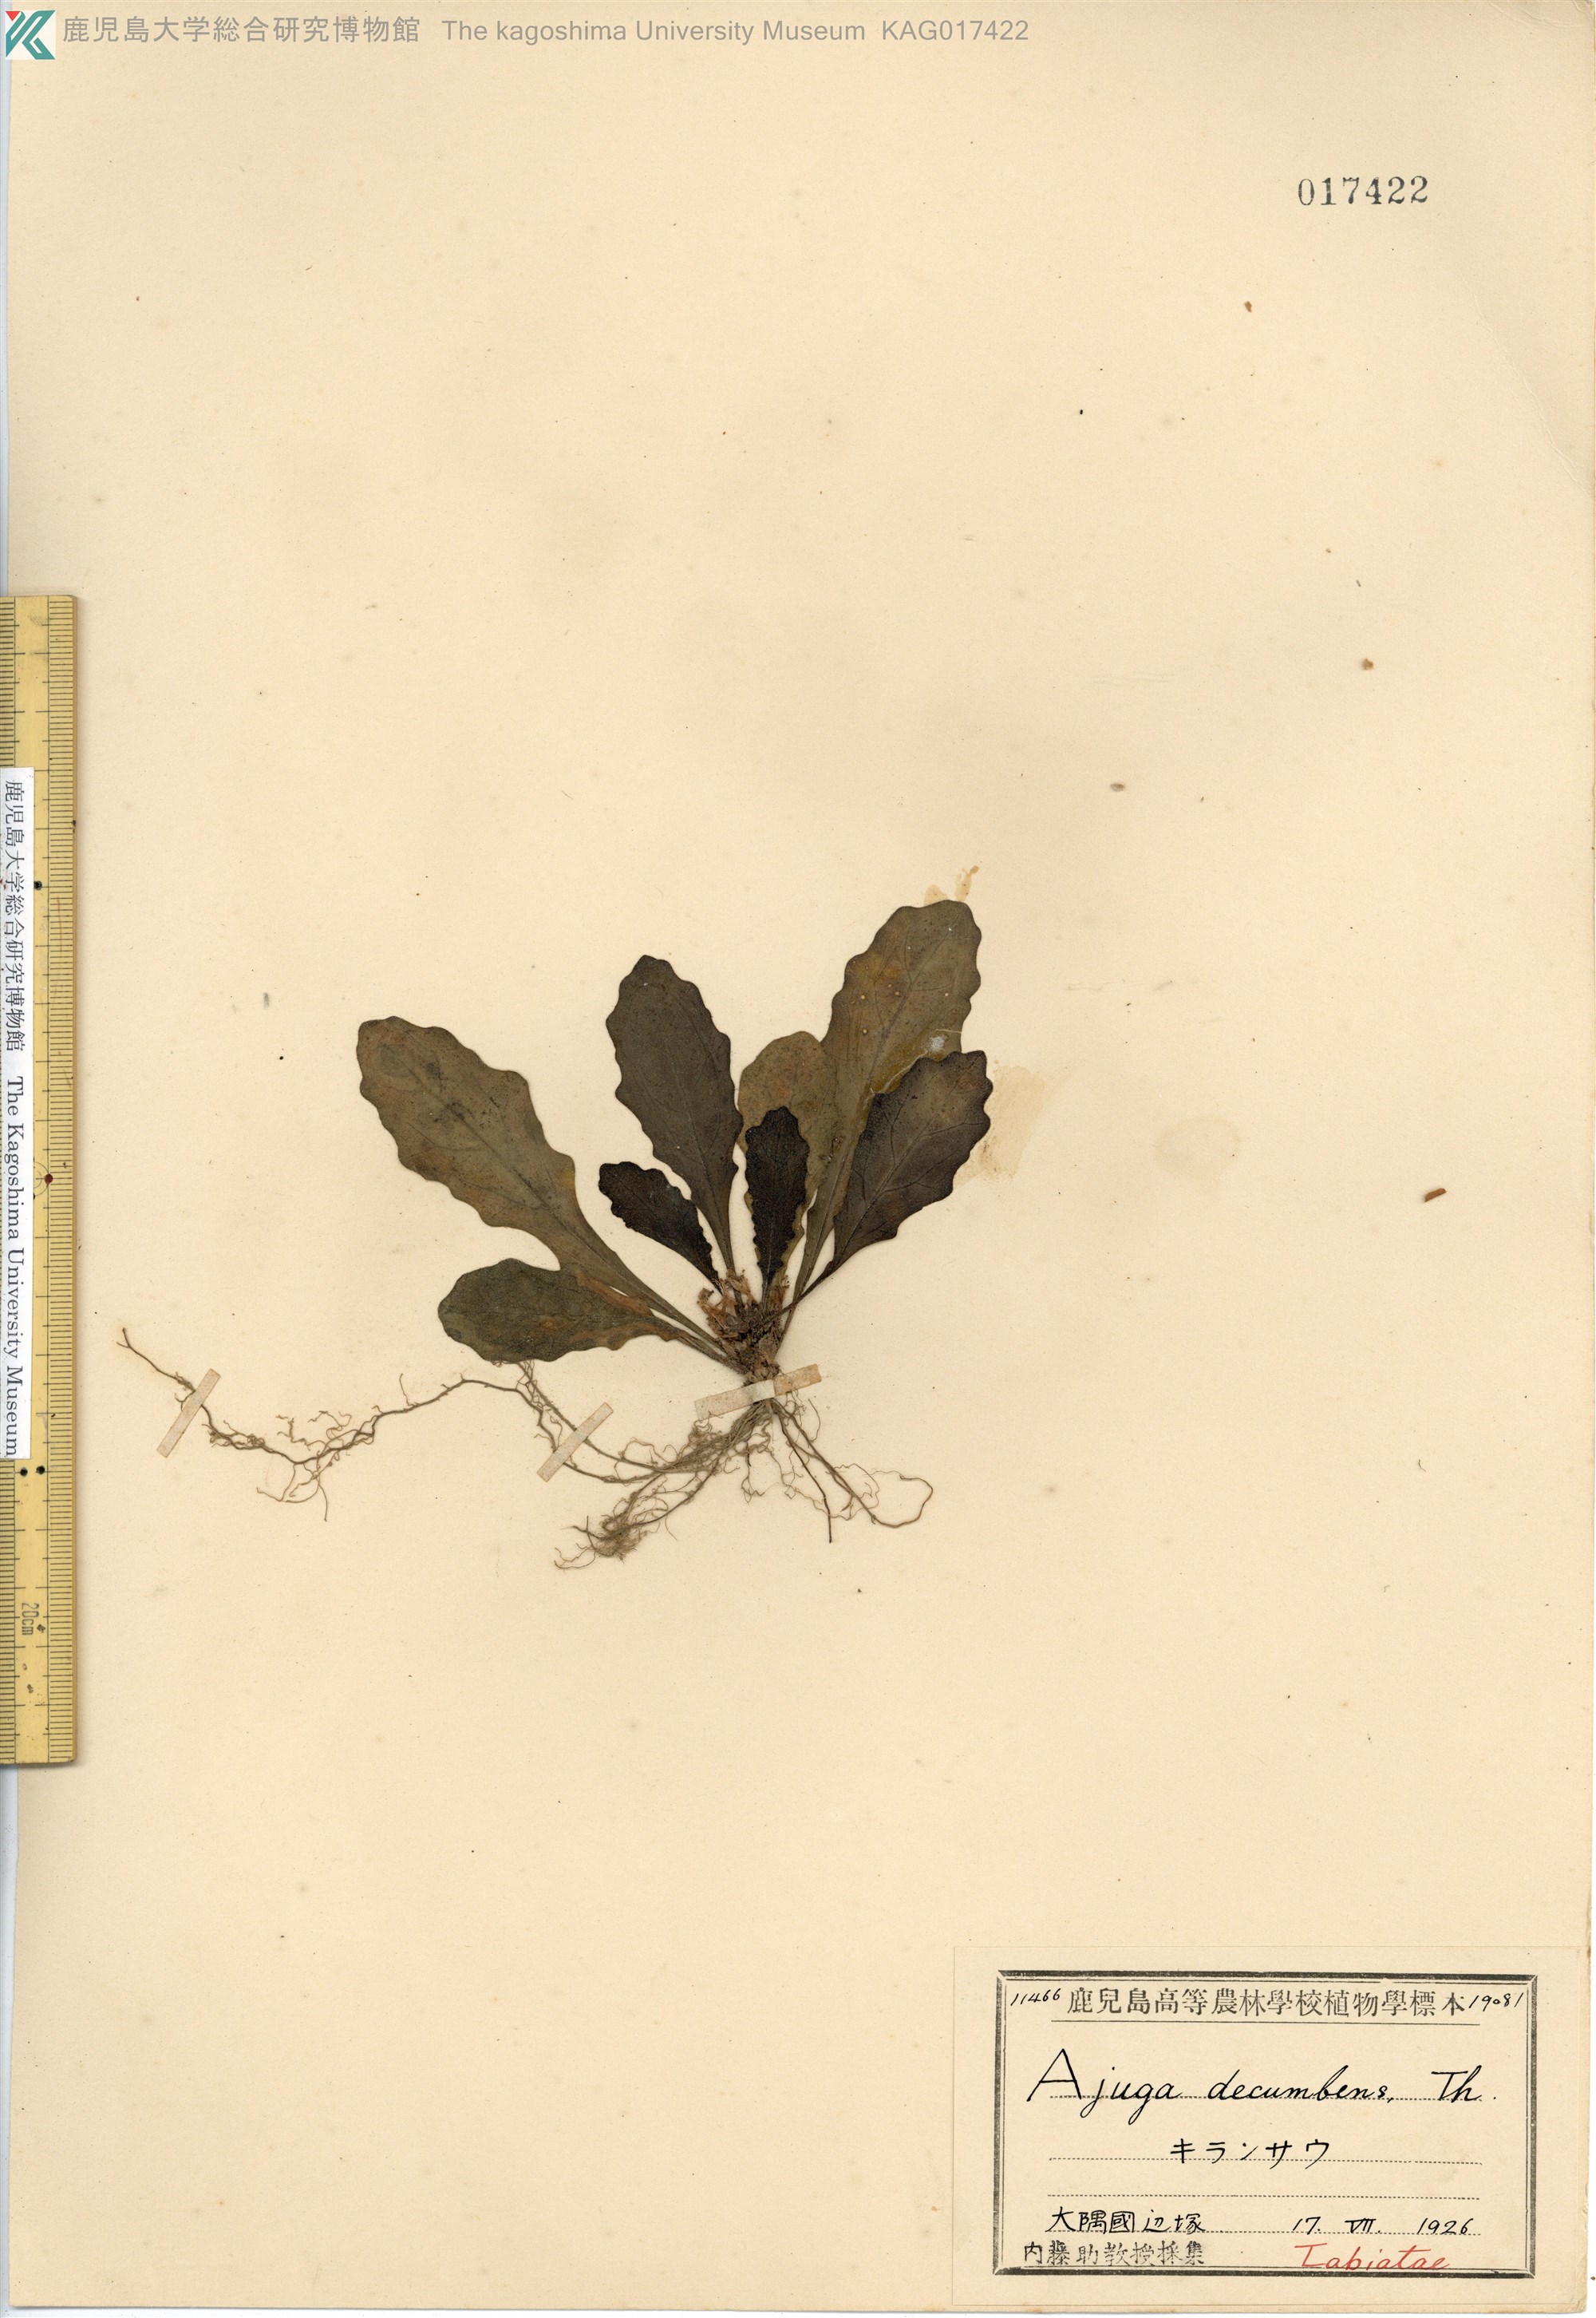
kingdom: Plantae
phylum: Tracheophyta
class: Magnoliopsida
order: Lamiales
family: Lamiaceae
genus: Ajuga
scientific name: Ajuga decumbens
